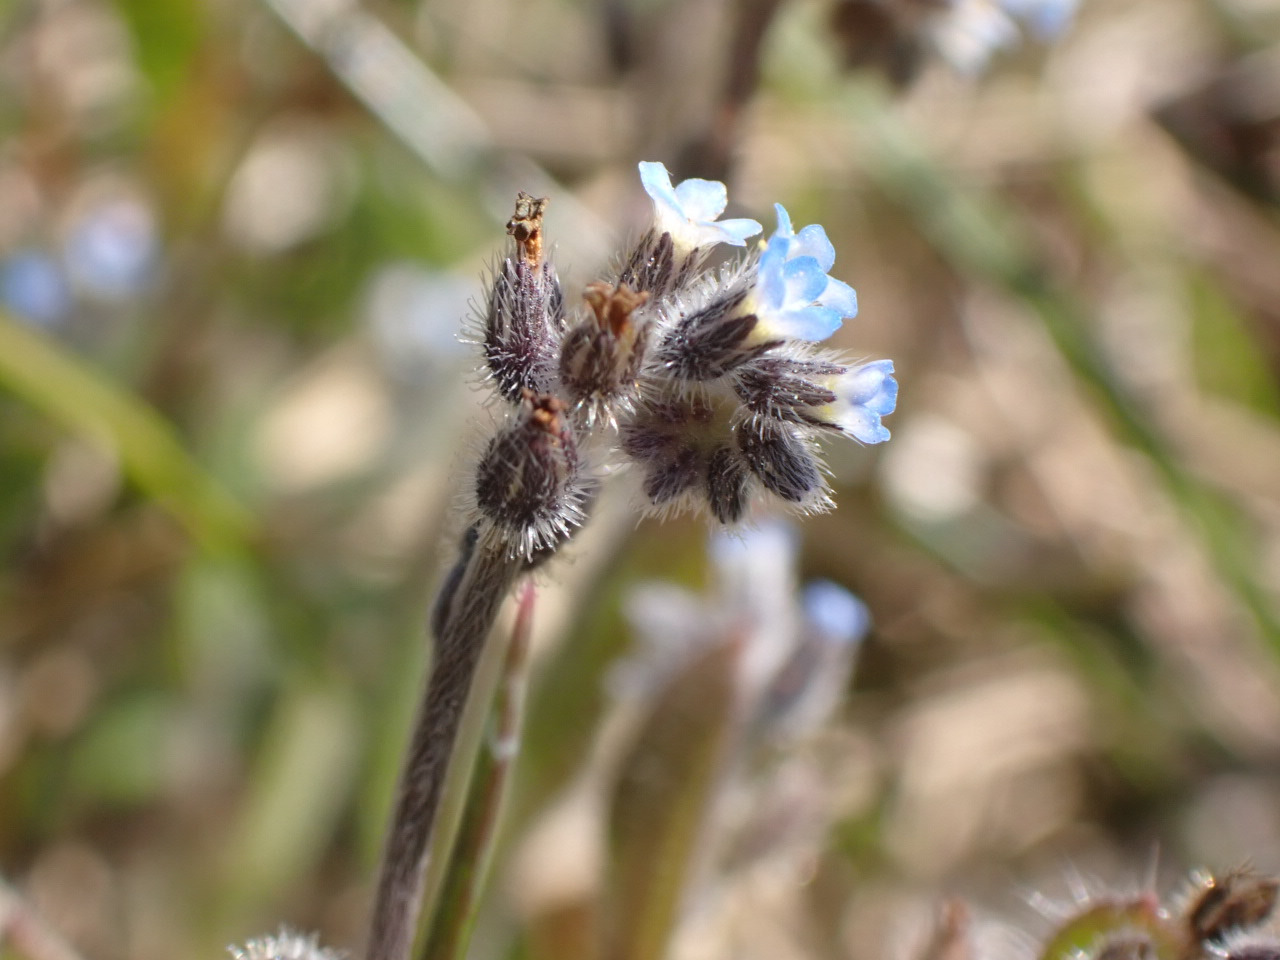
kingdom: Plantae
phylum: Tracheophyta
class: Magnoliopsida
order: Boraginales
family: Boraginaceae
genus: Myosotis
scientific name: Myosotis ramosissima
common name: Bakke-forglemmigej
